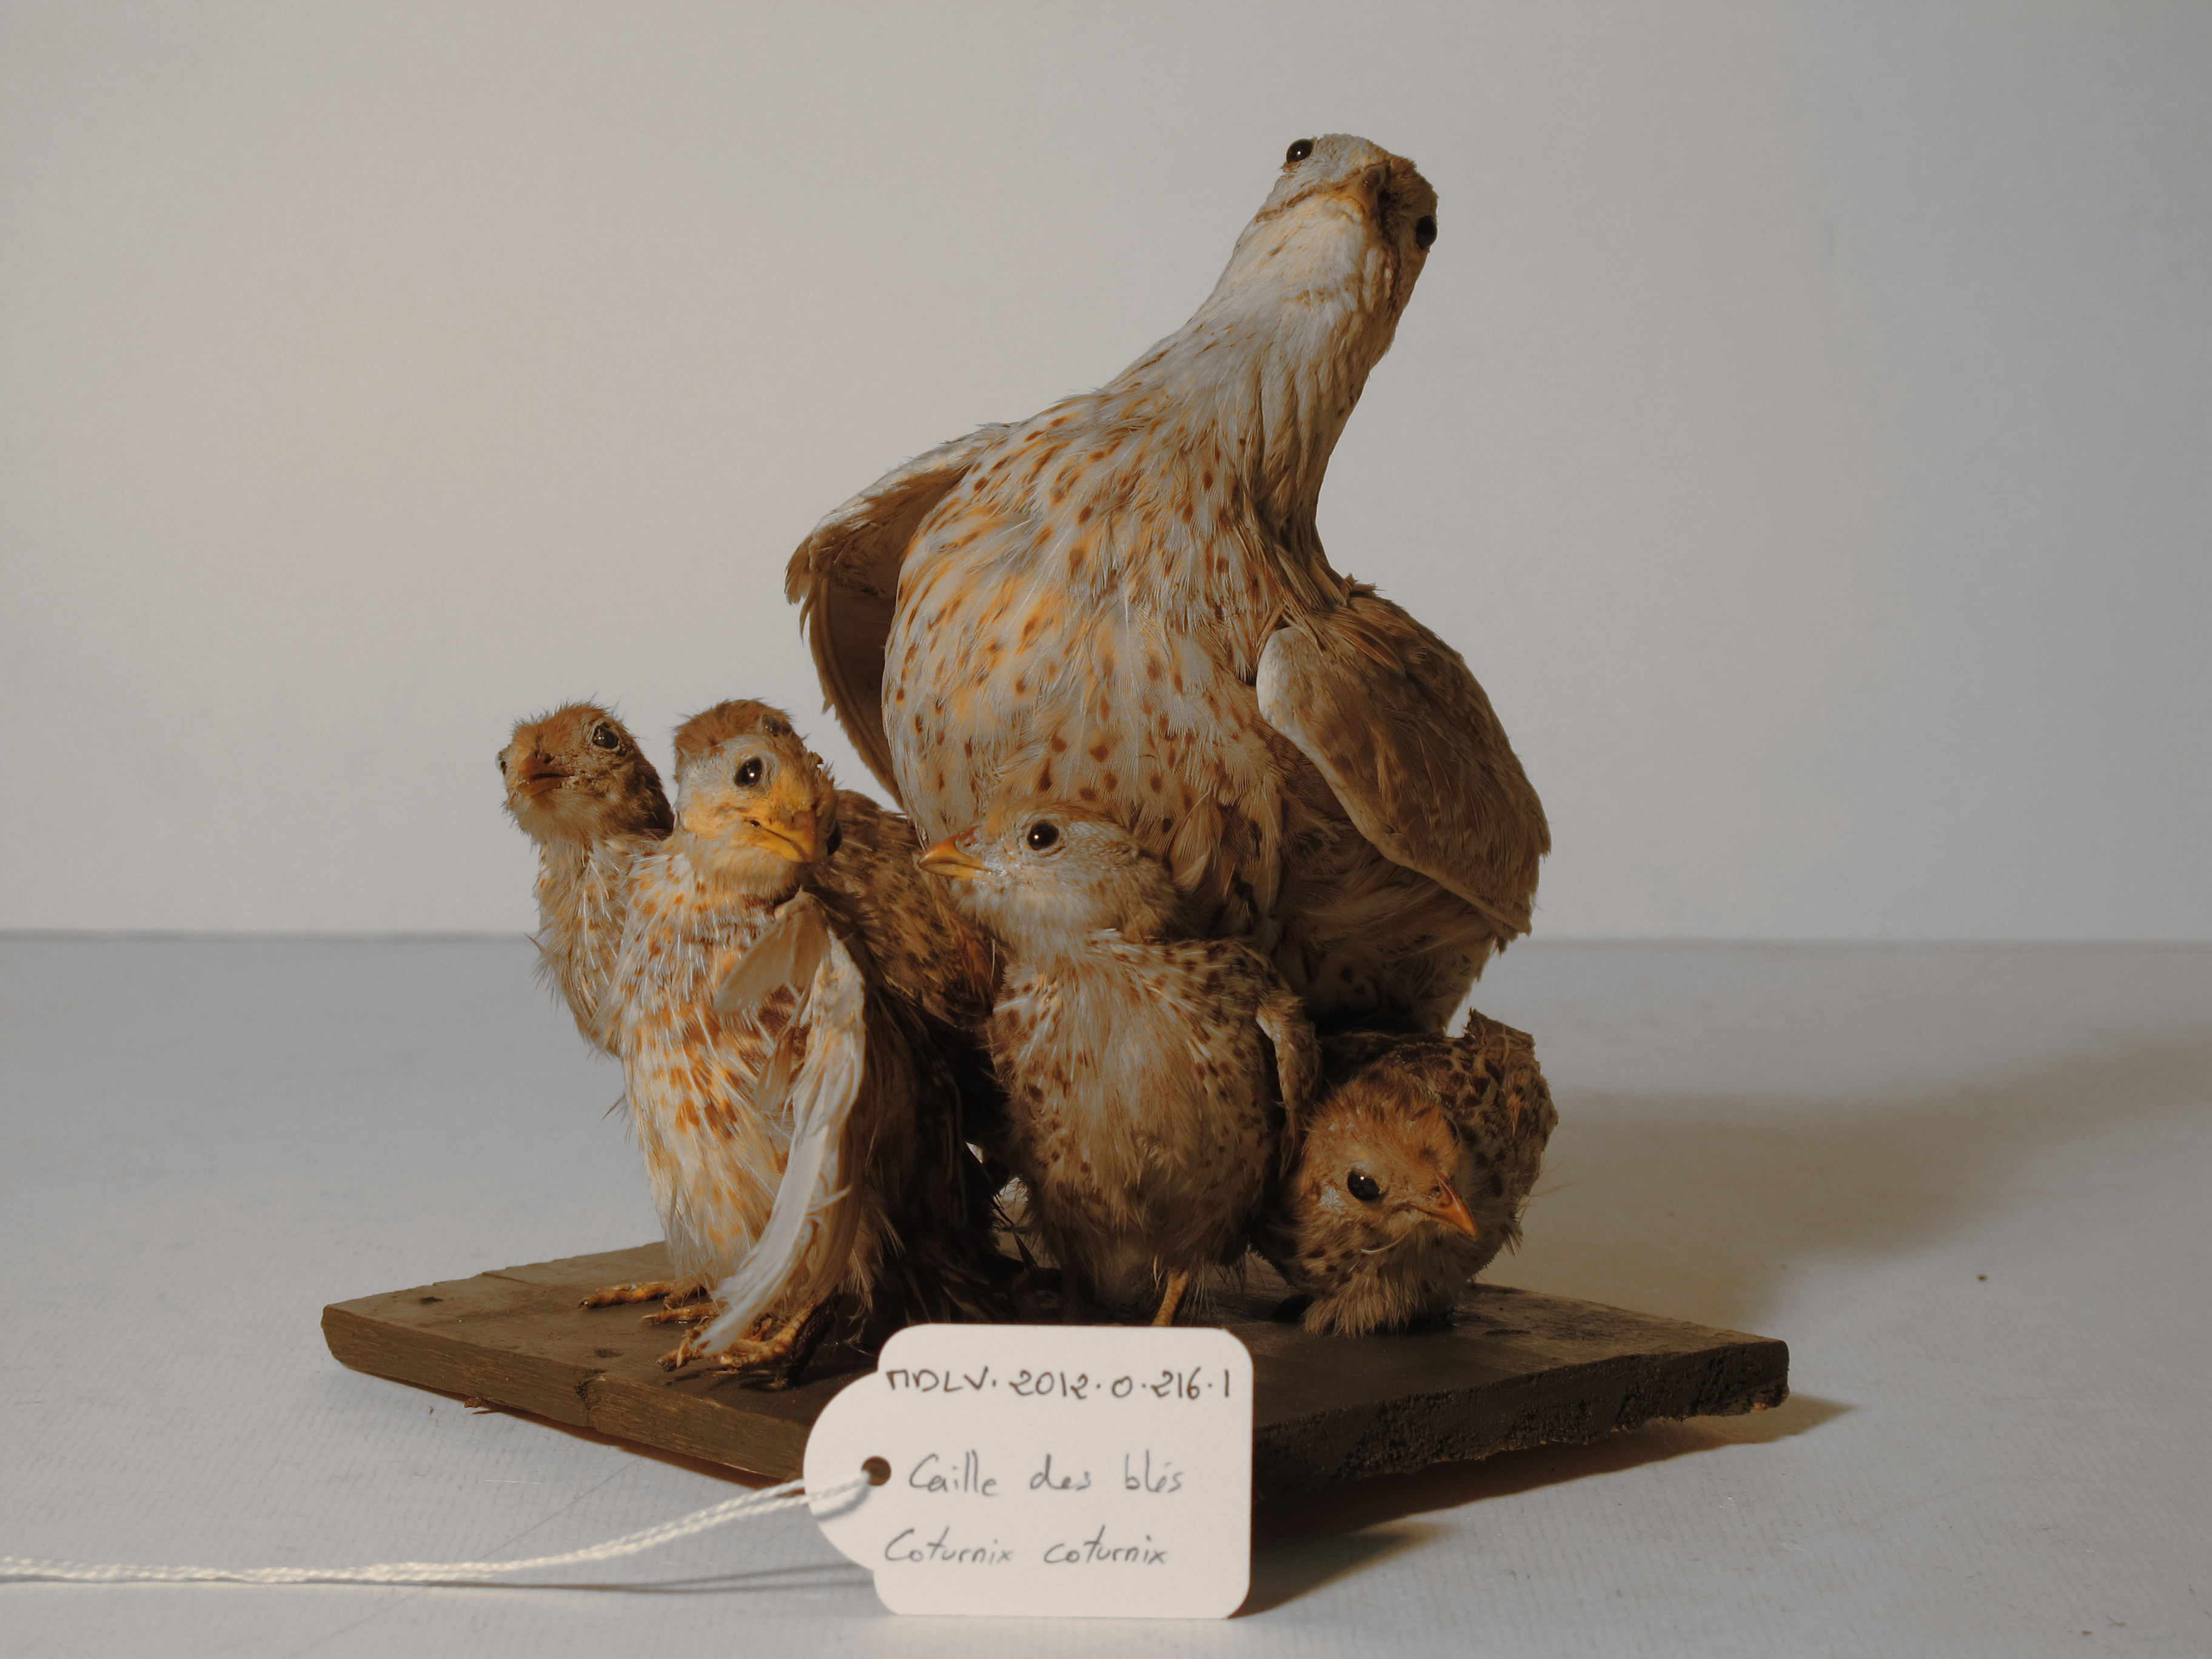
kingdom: Animalia
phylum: Chordata
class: Aves
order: Galliformes
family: Phasianidae
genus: Coturnix
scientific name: Coturnix coturnix
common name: Common Quail
